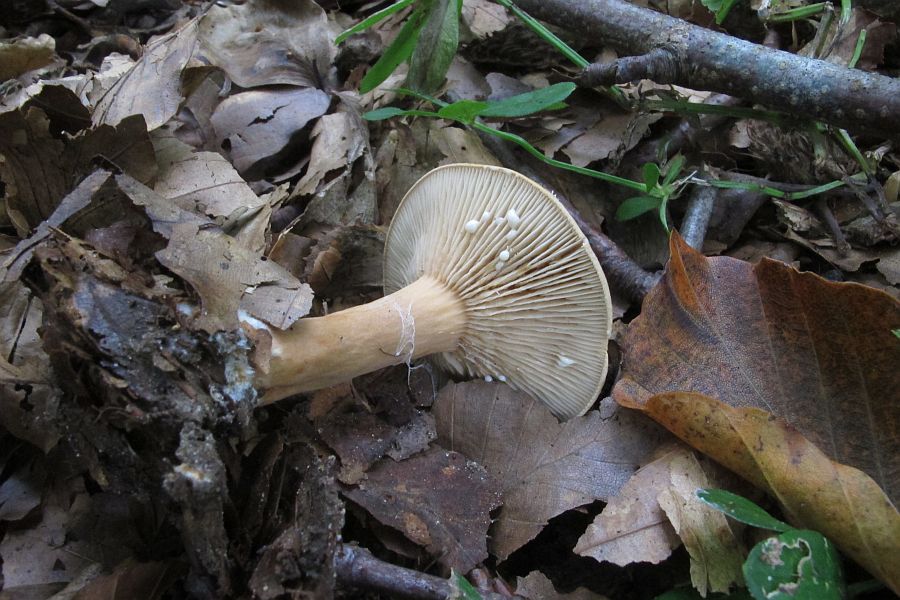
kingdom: Fungi
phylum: Basidiomycota
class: Agaricomycetes
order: Russulales
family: Russulaceae
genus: Lactarius
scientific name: Lactarius glyciosmus
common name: kokos-mælkehat
